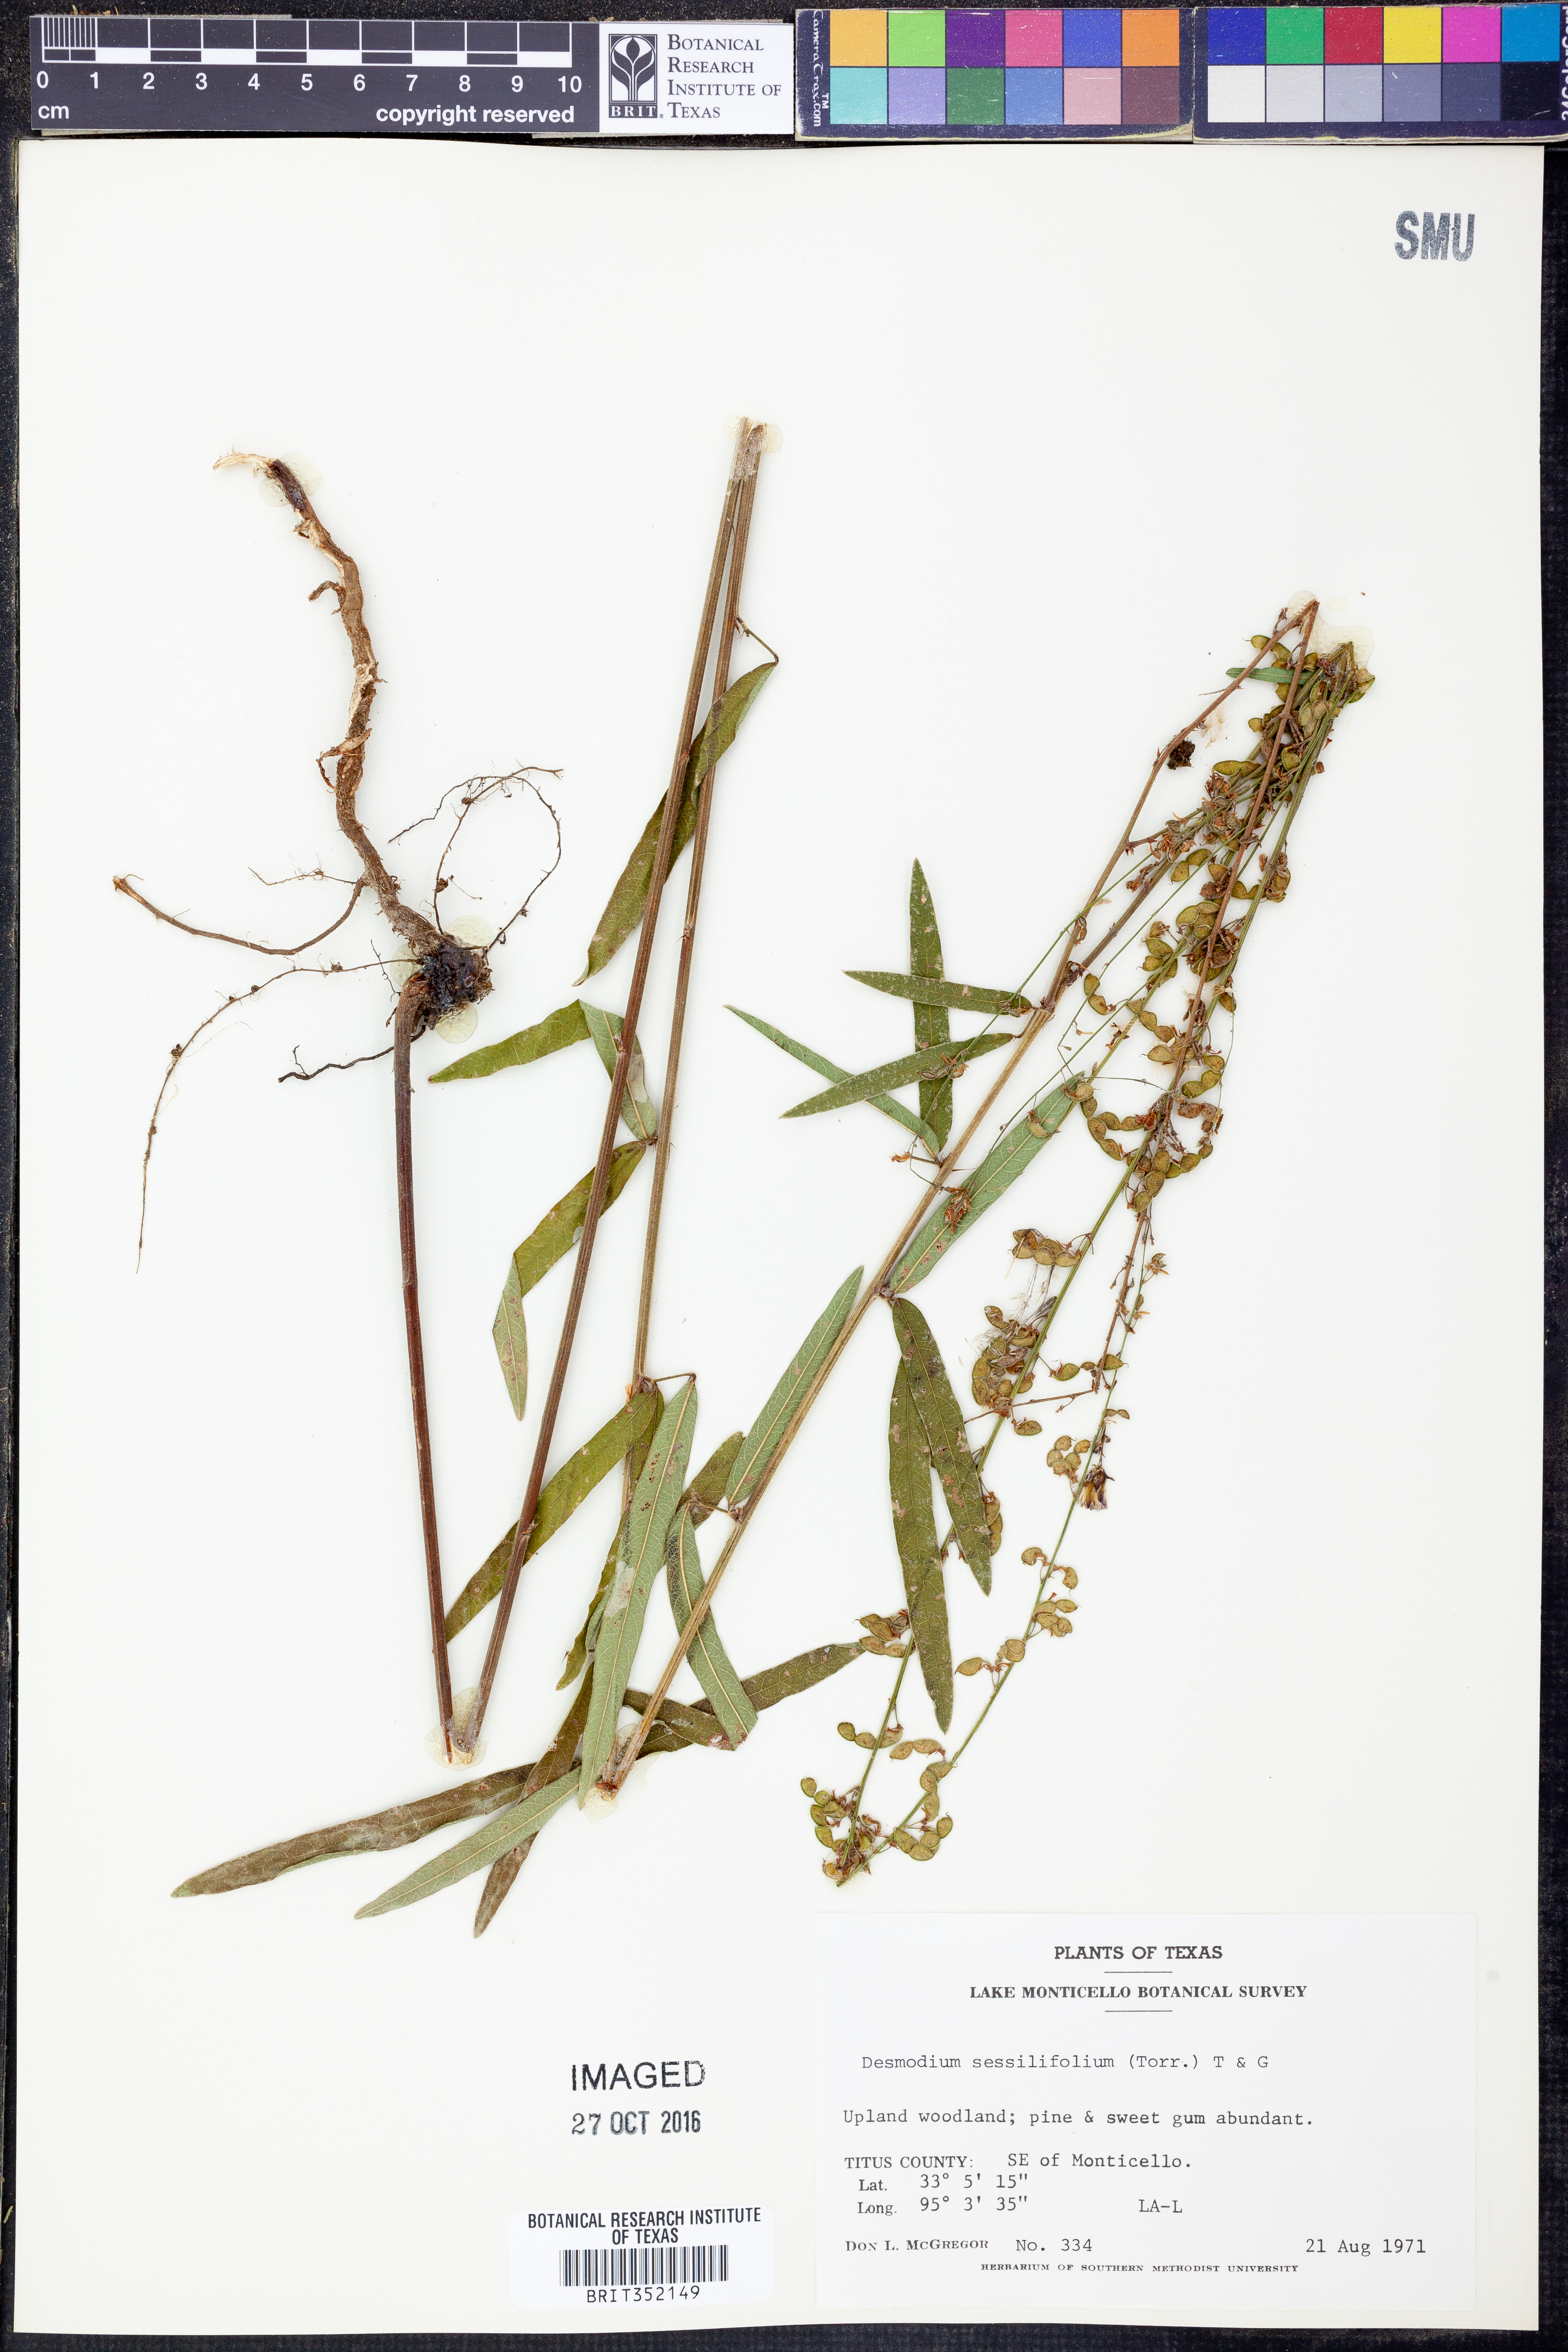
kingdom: Plantae
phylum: Tracheophyta
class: Magnoliopsida
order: Fabales
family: Fabaceae
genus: Desmodium
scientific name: Desmodium sessilifolium
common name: Sessile tick-clover
